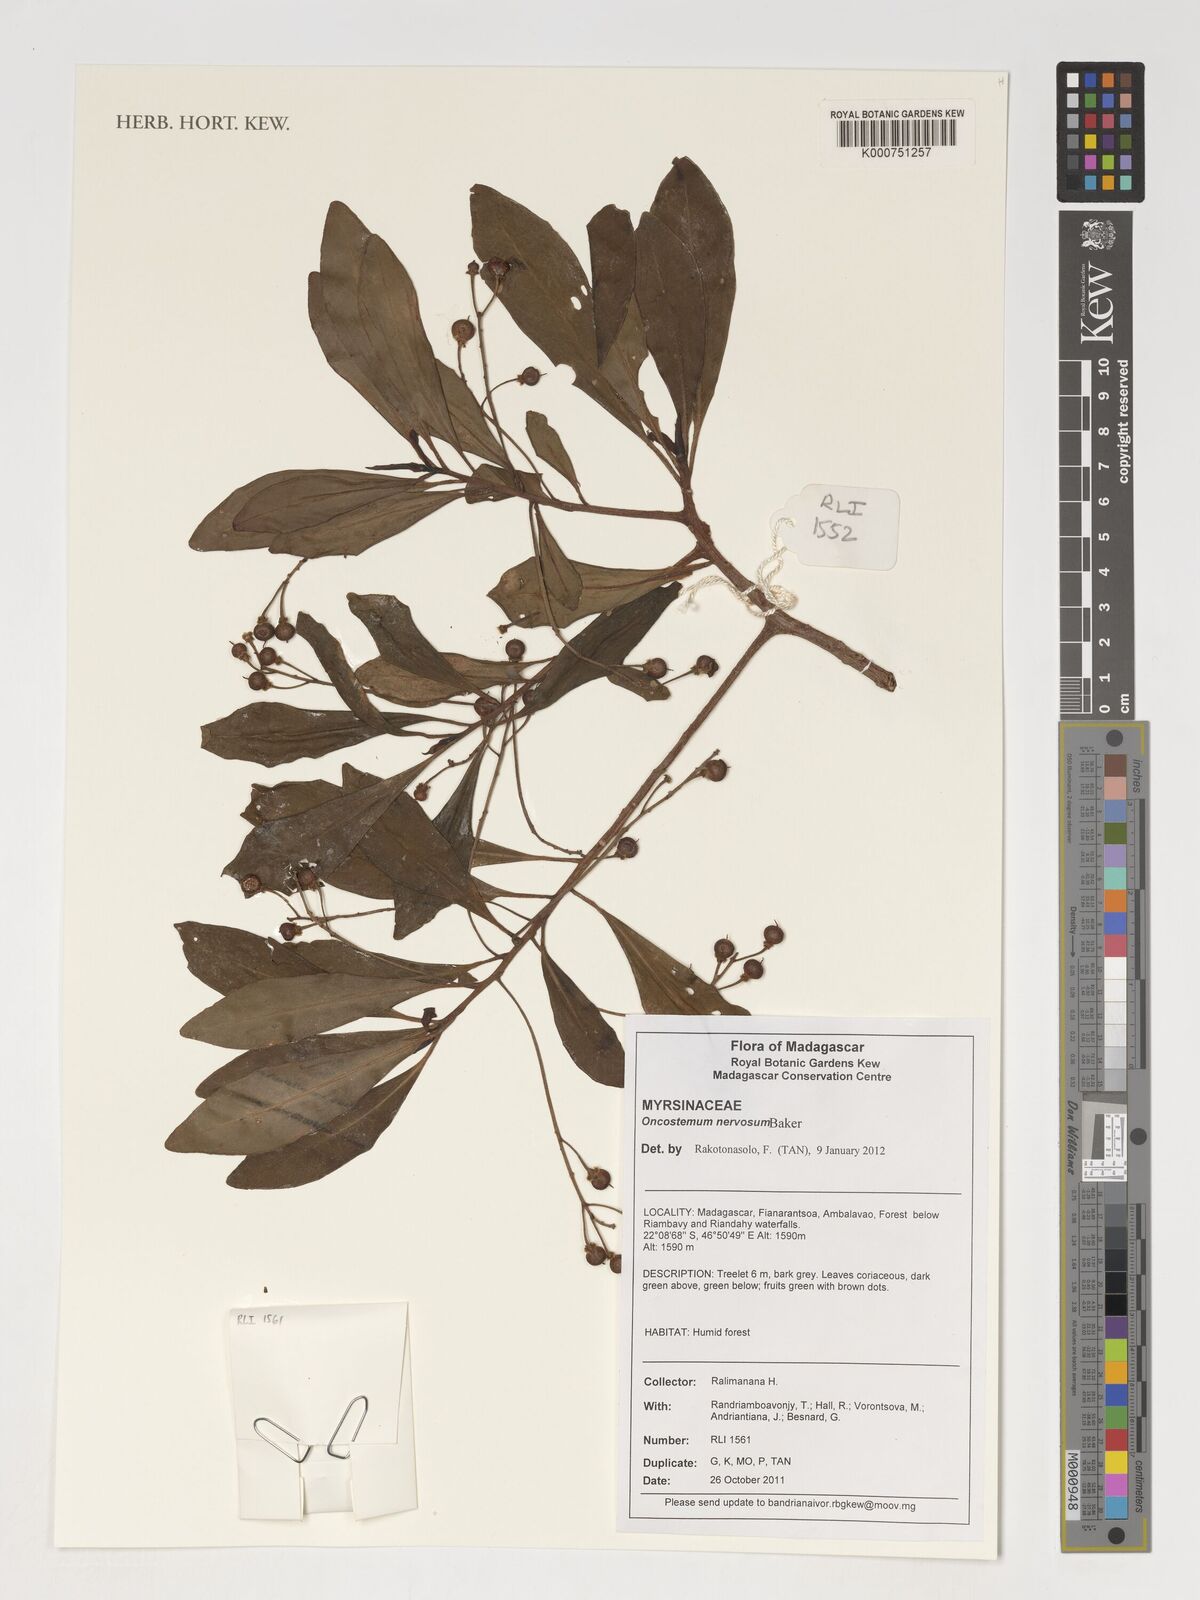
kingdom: Plantae
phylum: Tracheophyta
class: Magnoliopsida
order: Ericales
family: Primulaceae
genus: Oncostemum
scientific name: Oncostemum nervosum
